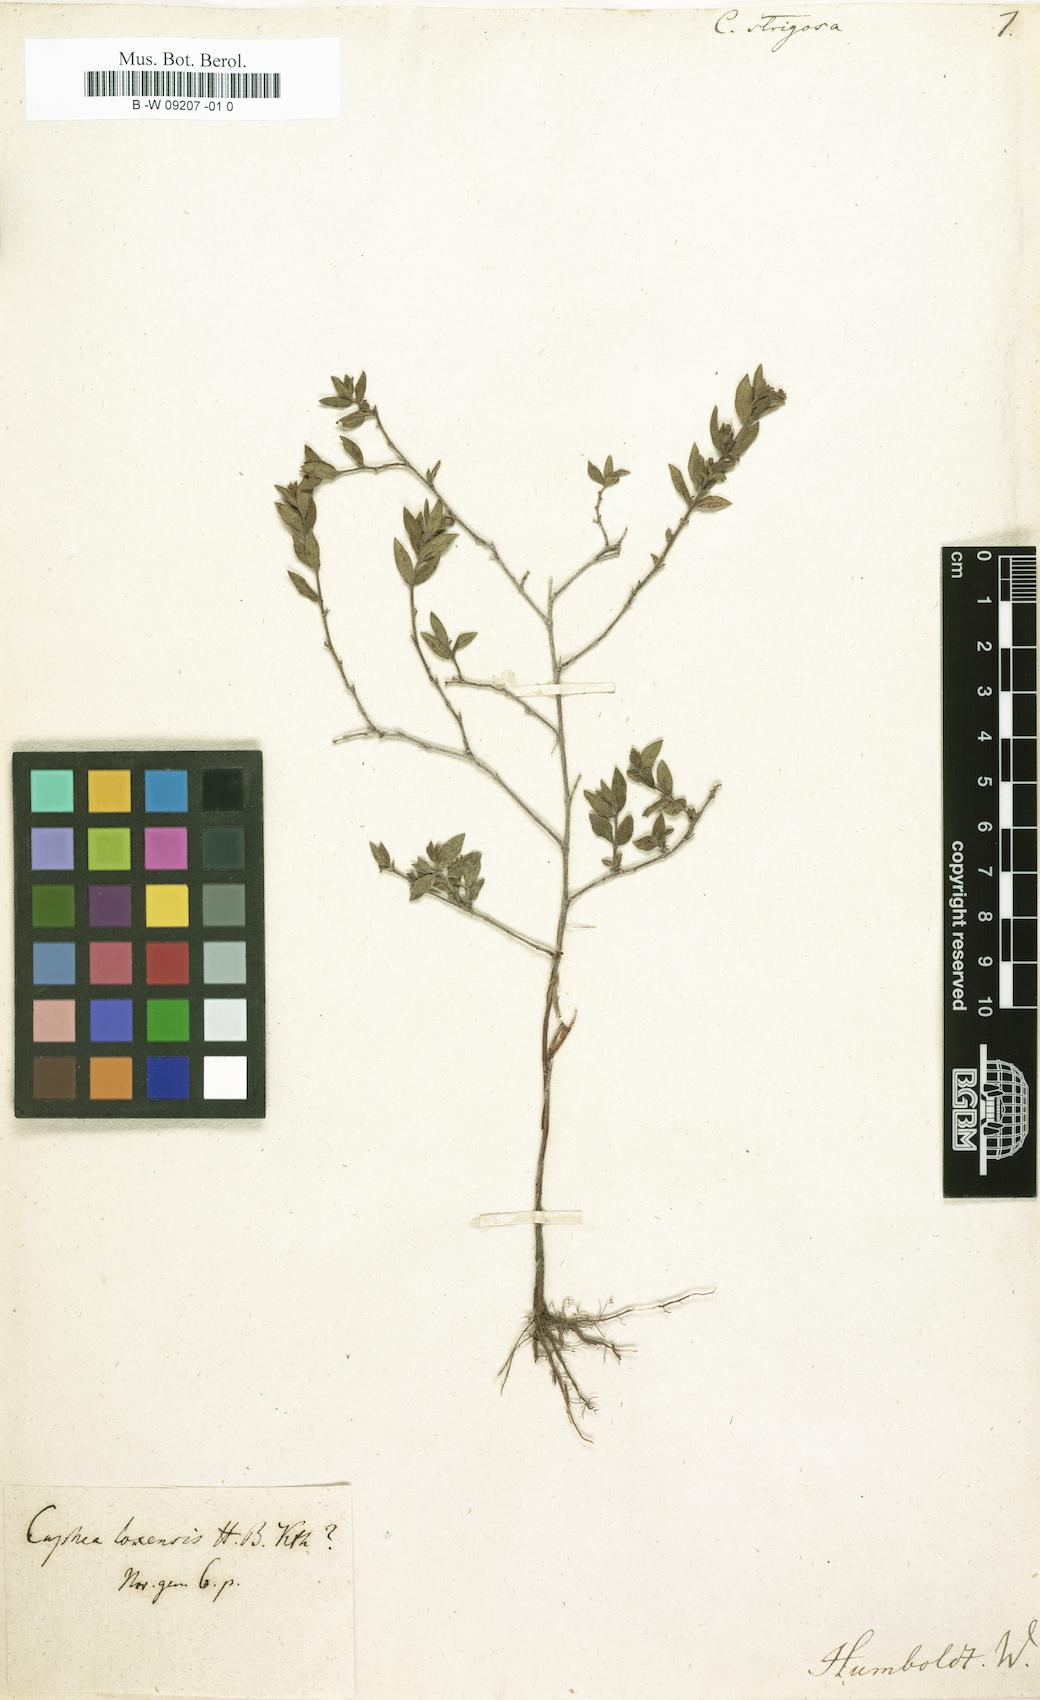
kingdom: Plantae
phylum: Tracheophyta
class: Magnoliopsida
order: Myrtales
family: Lythraceae
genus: Cuphea
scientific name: Cuphea strigulosa
